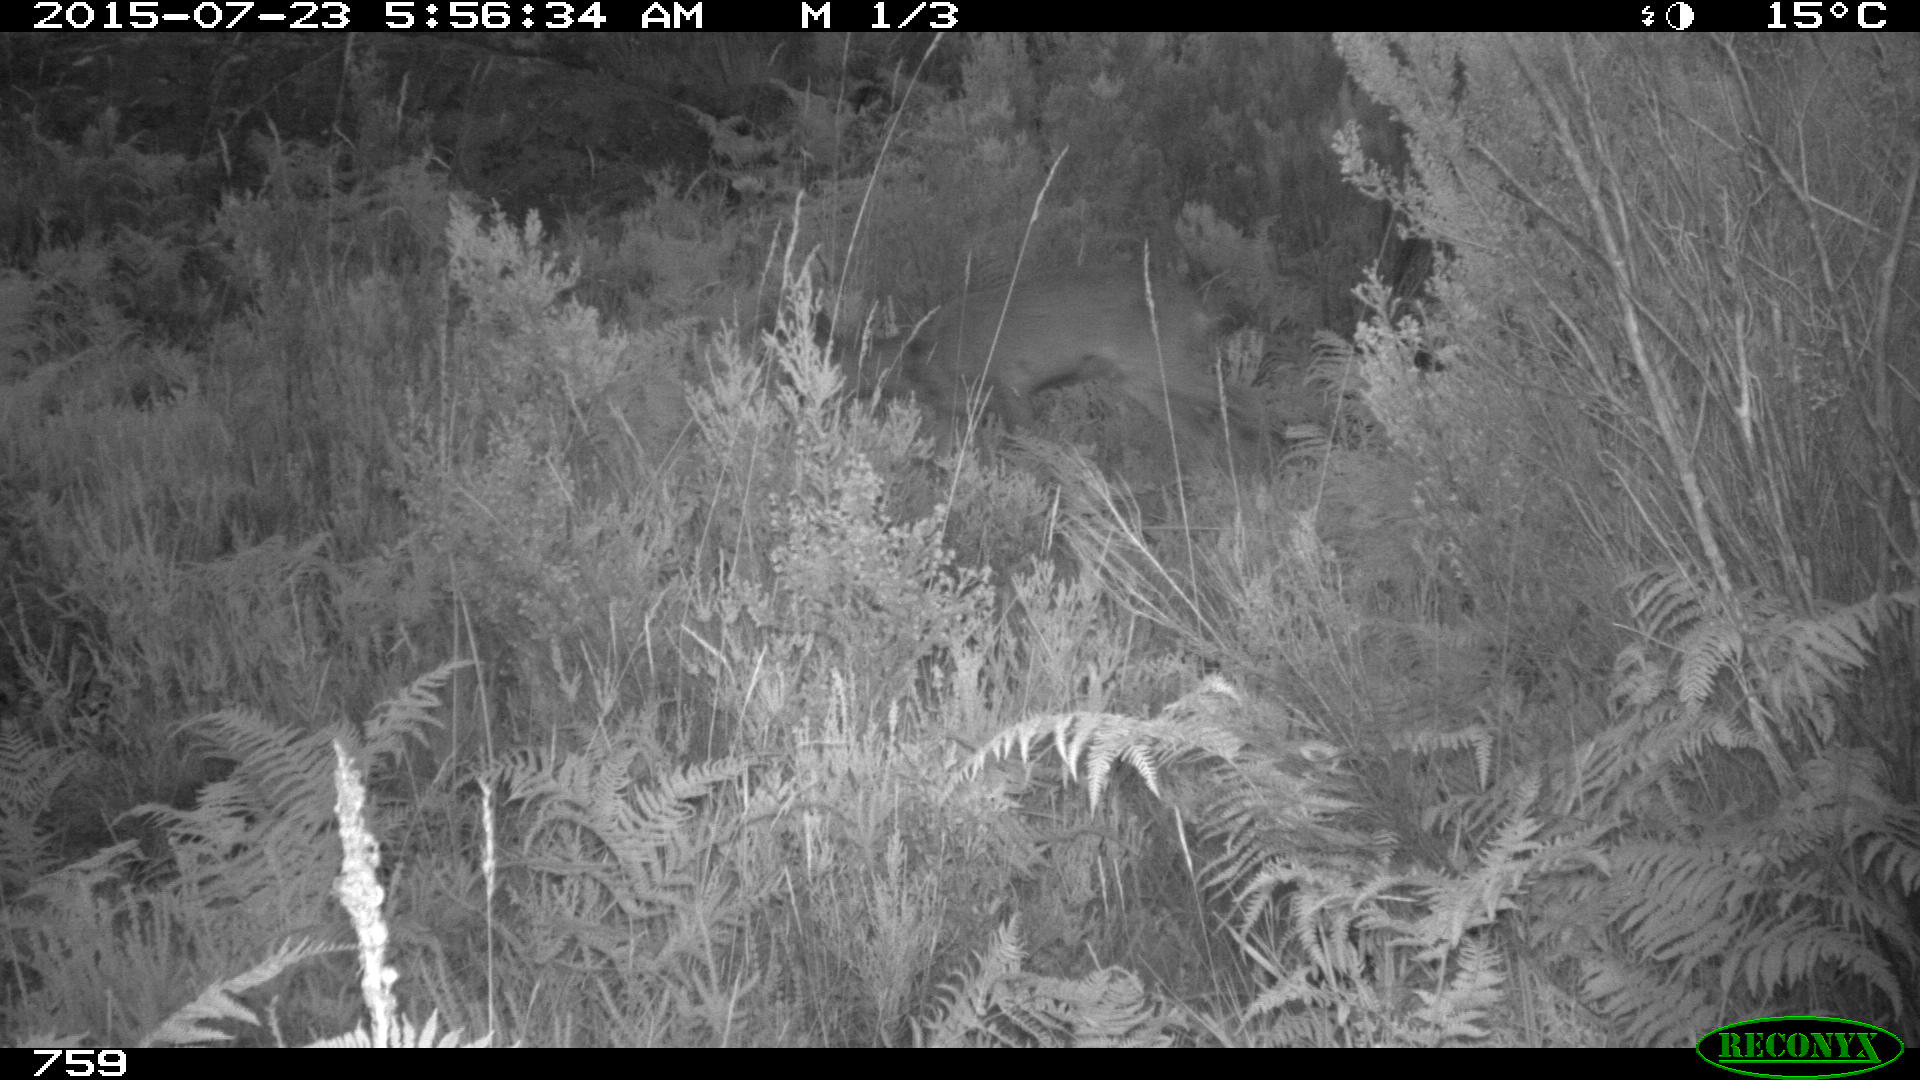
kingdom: Animalia
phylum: Chordata
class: Mammalia
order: Artiodactyla
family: Cervidae
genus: Capreolus
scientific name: Capreolus capreolus
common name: Western roe deer
